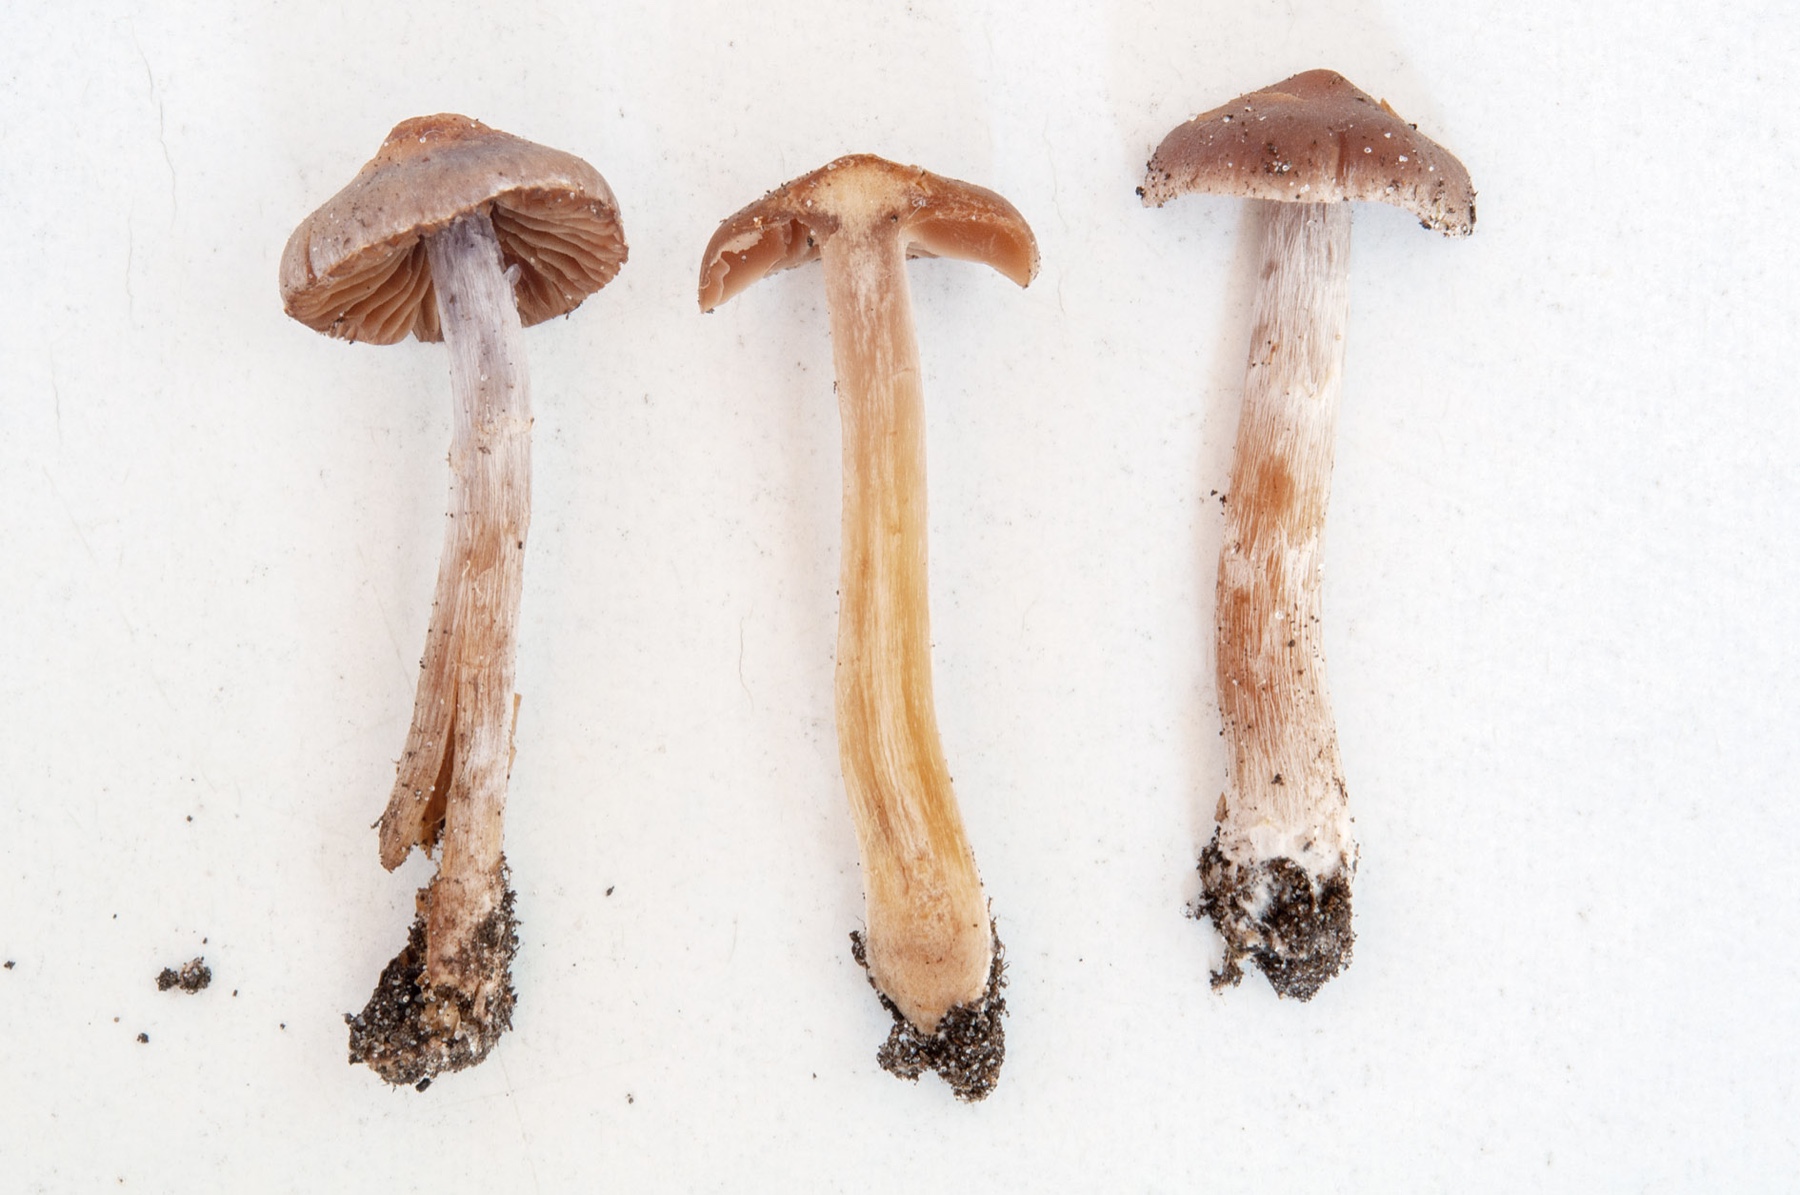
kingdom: Fungi
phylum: Basidiomycota
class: Agaricomycetes
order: Agaricales
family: Cortinariaceae
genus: Cortinarius
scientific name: Cortinarius cistopulchripes
